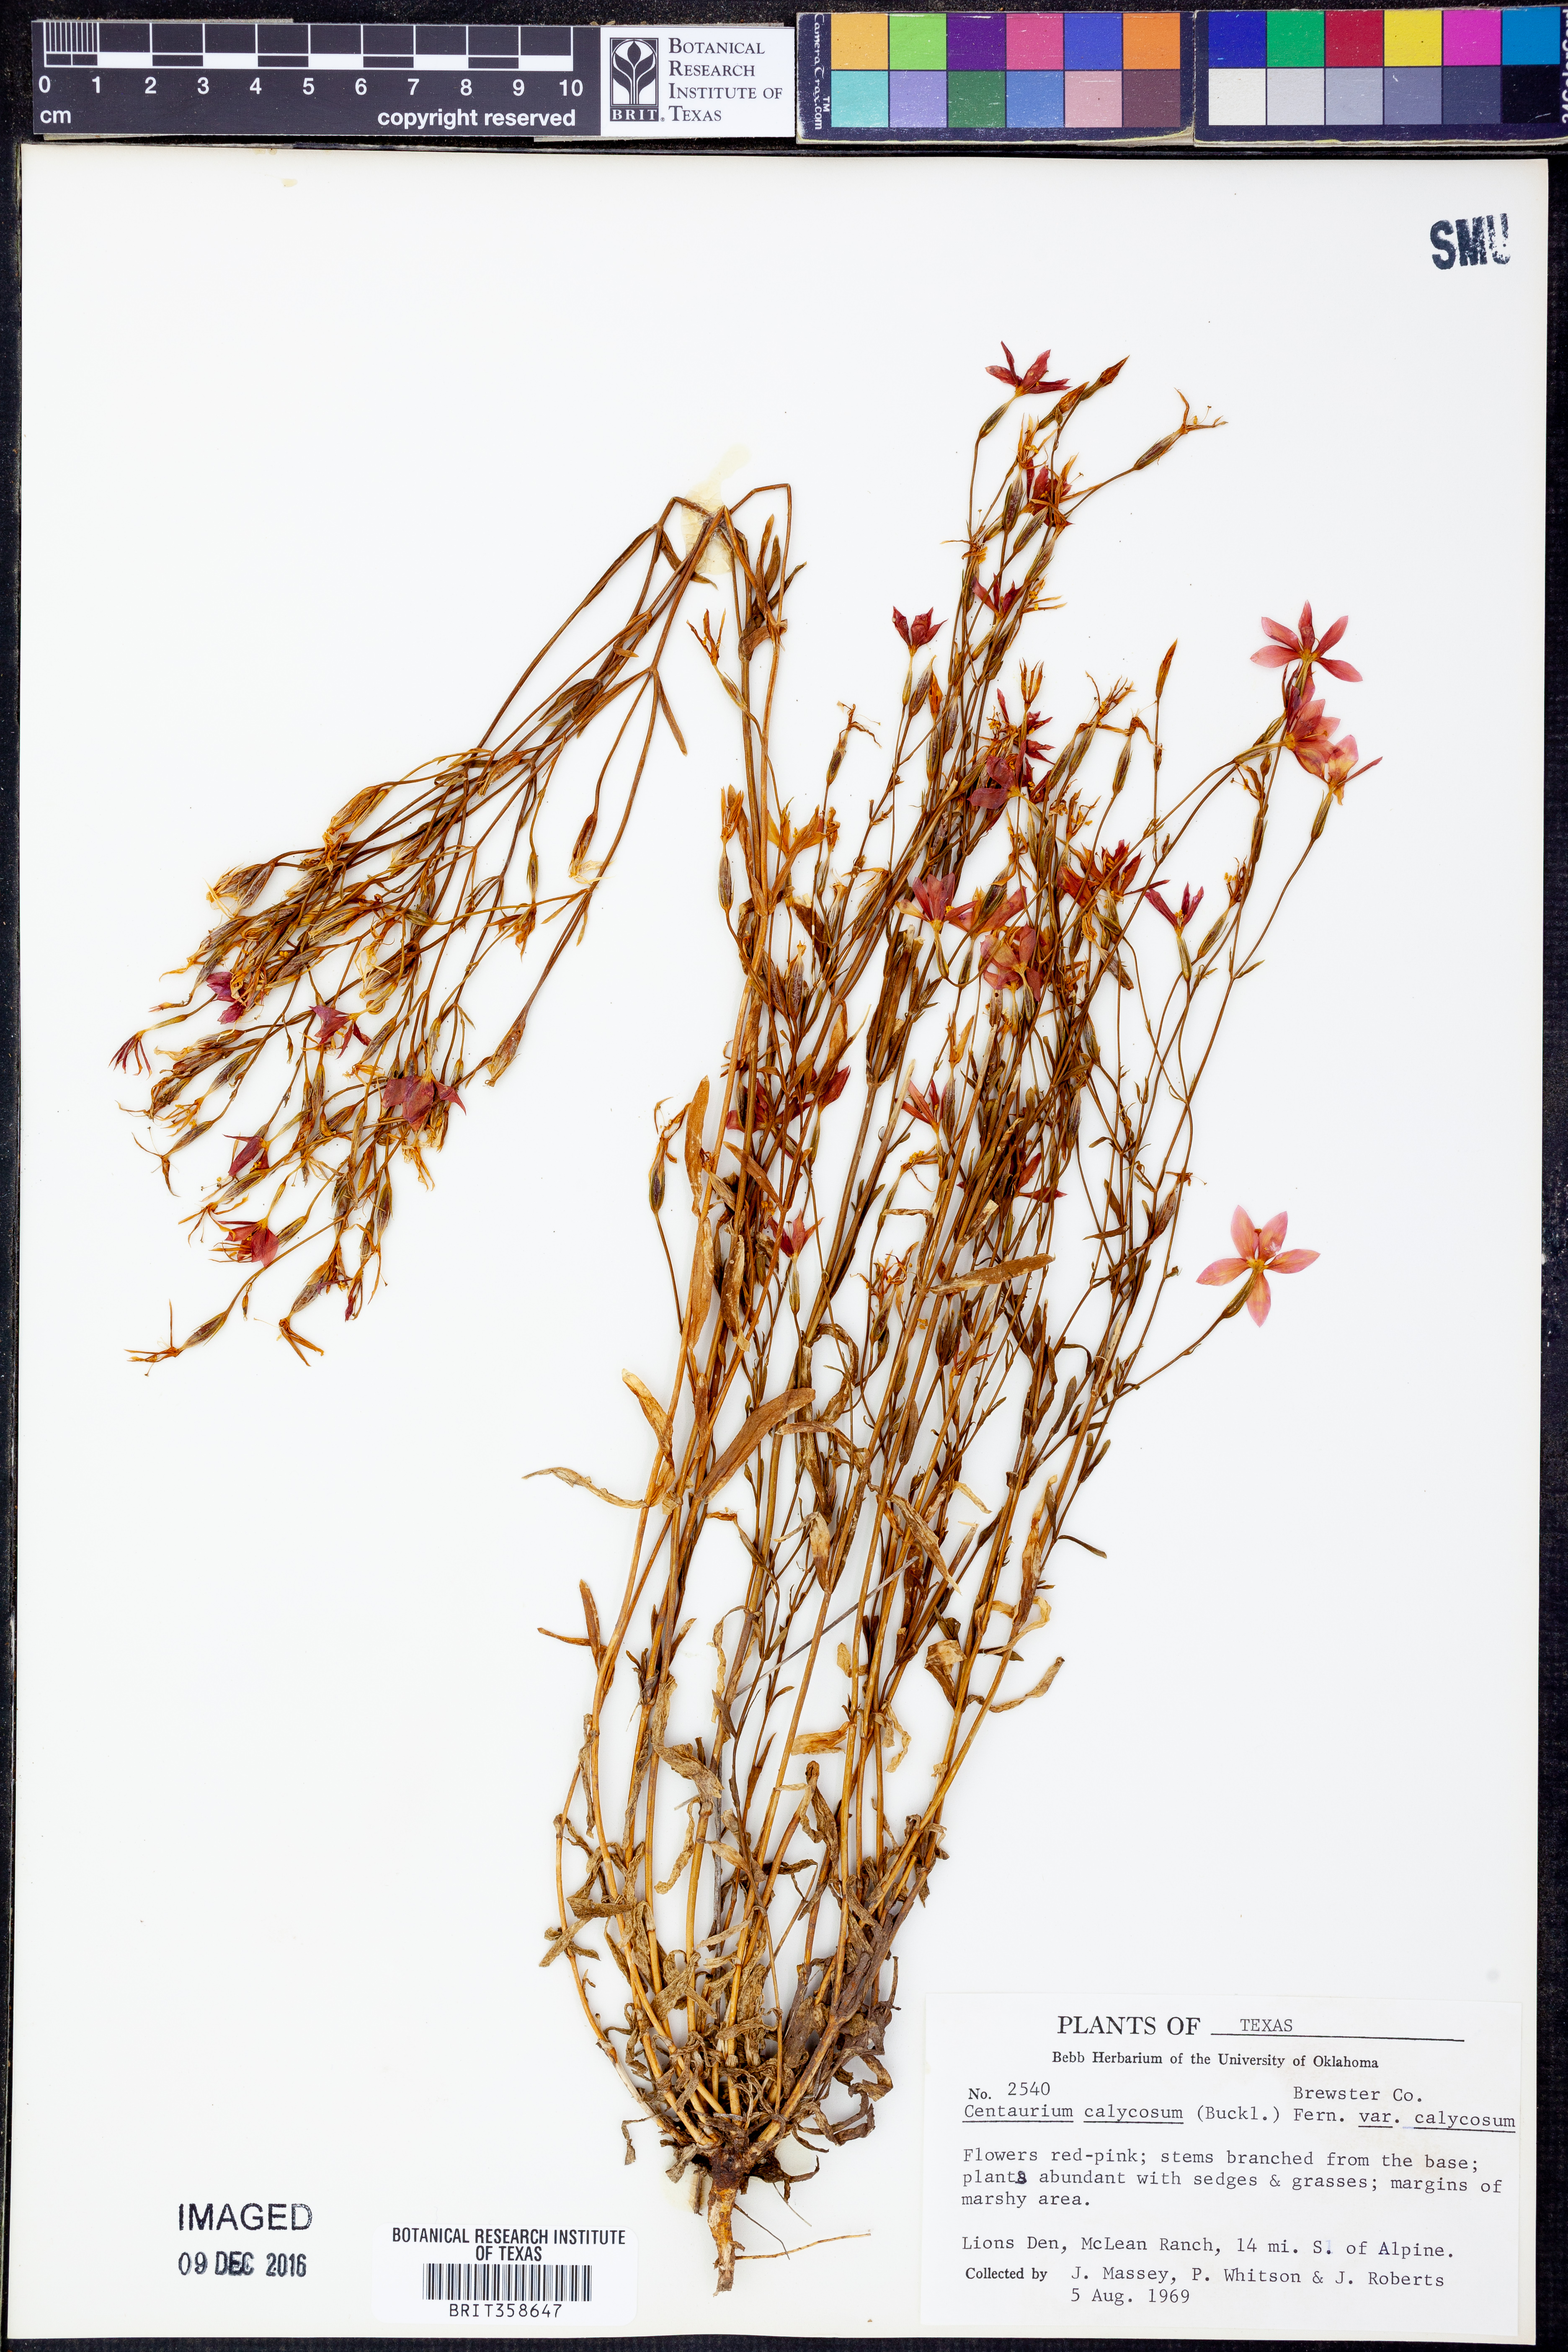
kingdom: Plantae
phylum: Tracheophyta
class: Magnoliopsida
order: Gentianales
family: Gentianaceae
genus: Zeltnera
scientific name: Zeltnera calycosa
